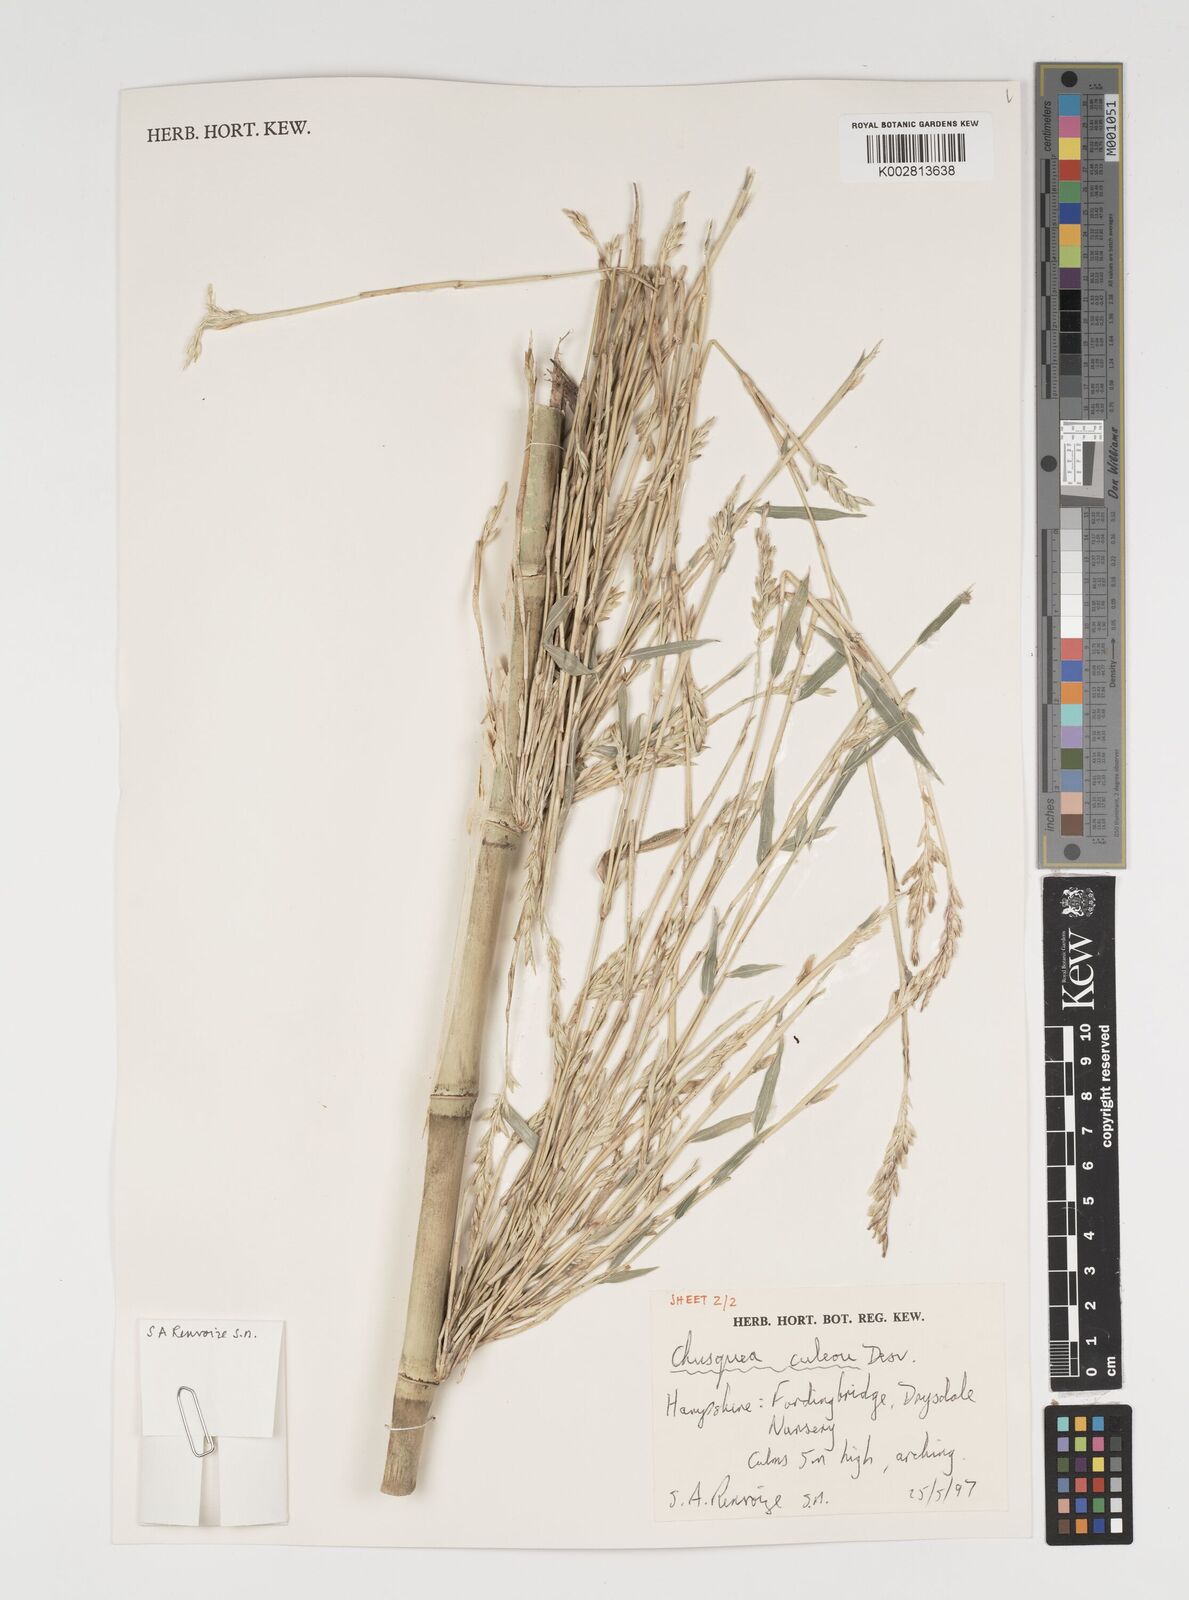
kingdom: Plantae
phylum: Tracheophyta
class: Liliopsida
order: Poales
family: Poaceae
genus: Chusquea
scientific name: Chusquea culeou
